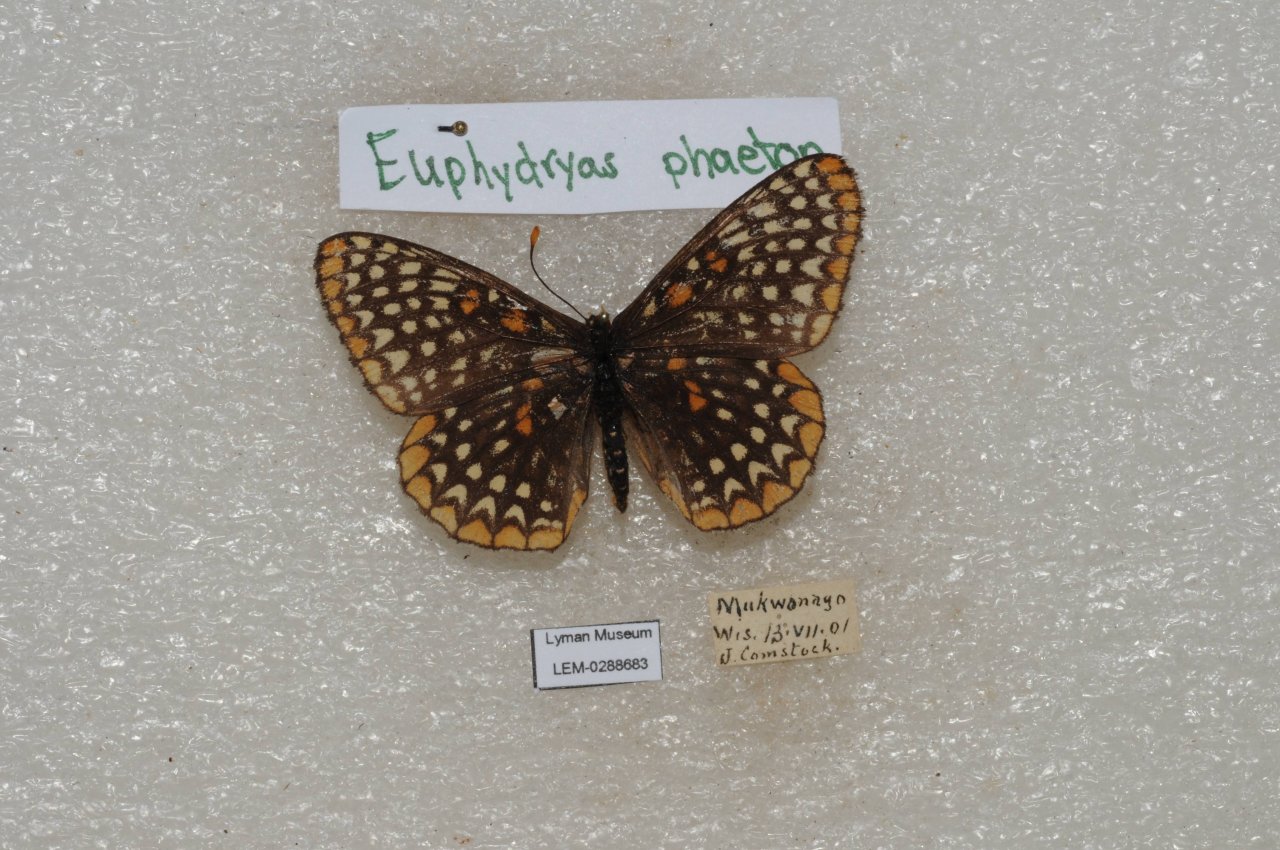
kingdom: Animalia
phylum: Arthropoda
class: Insecta
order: Lepidoptera
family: Nymphalidae
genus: Euphydryas
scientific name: Euphydryas phaeton
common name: Baltimore Checkerspot
